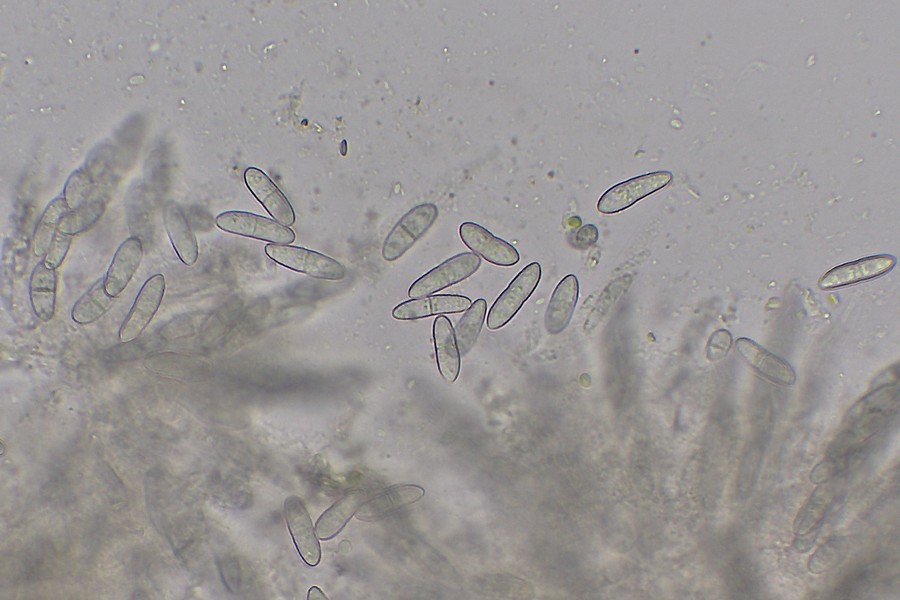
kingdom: Fungi
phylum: Ascomycota
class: Sordariomycetes
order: Hypocreales
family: Nectriaceae
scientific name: Nectriaceae
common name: cinnobersvampfamilien
